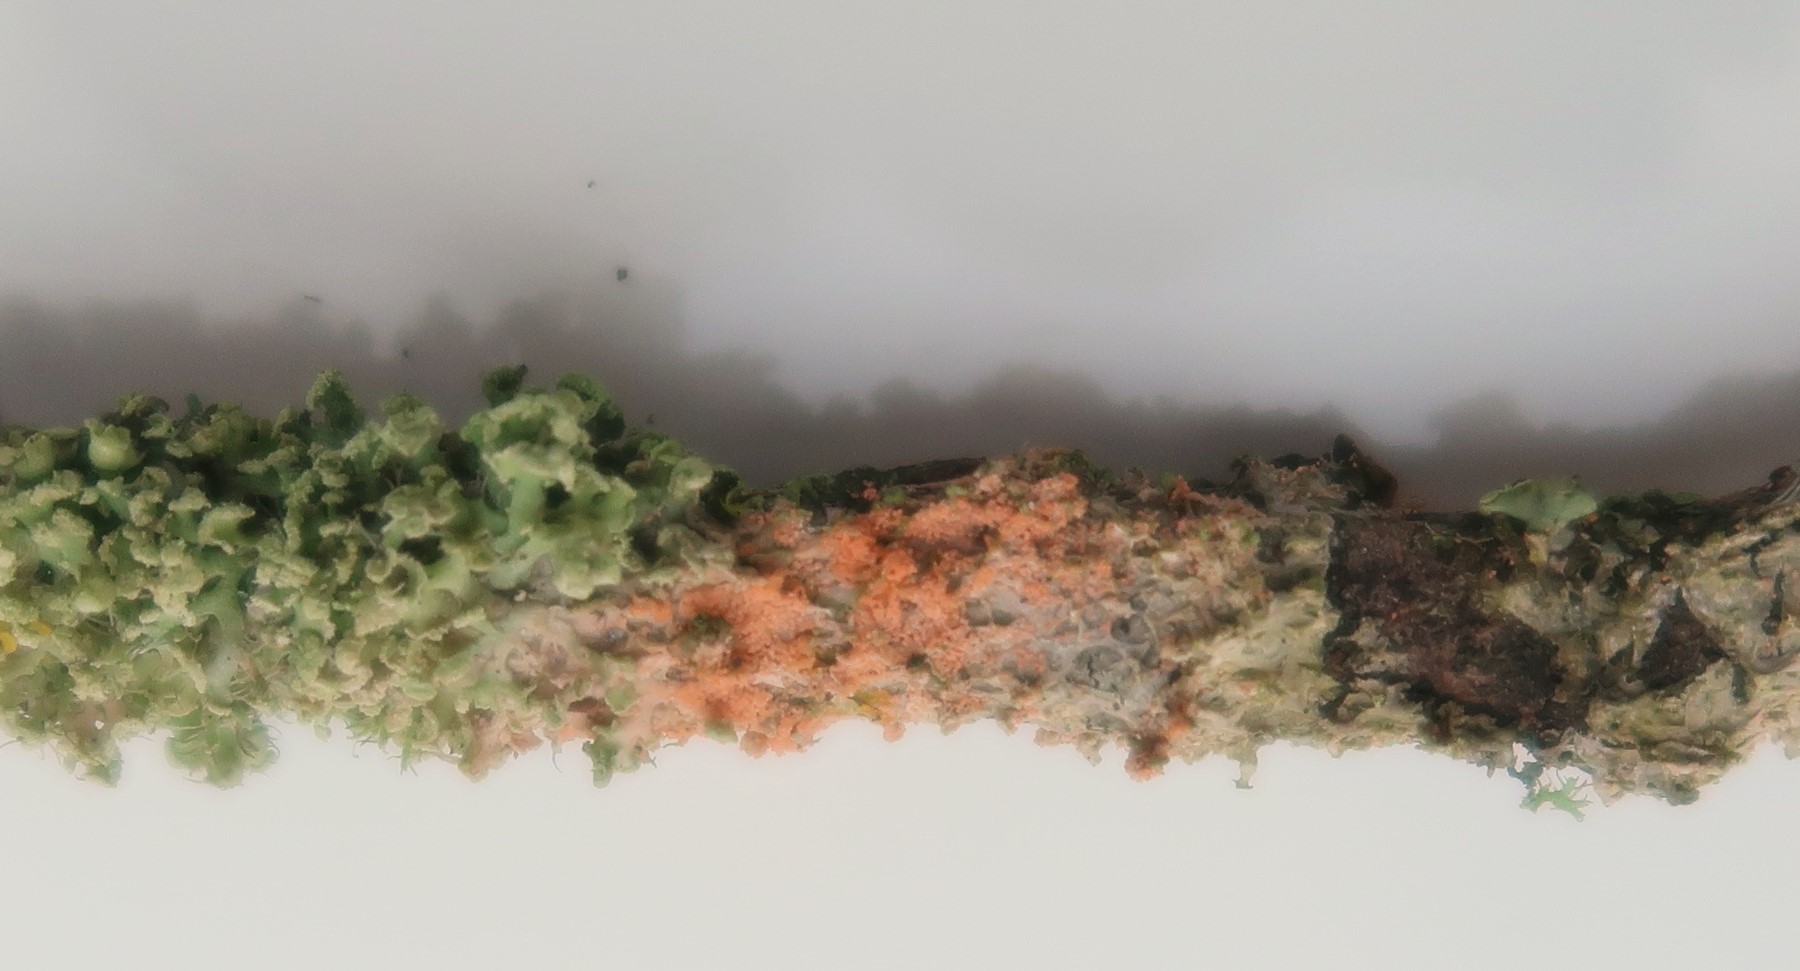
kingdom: Fungi
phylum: Basidiomycota
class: Agaricomycetes
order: Corticiales
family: Corticiaceae
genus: Erythricium
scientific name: Erythricium aurantiacum
